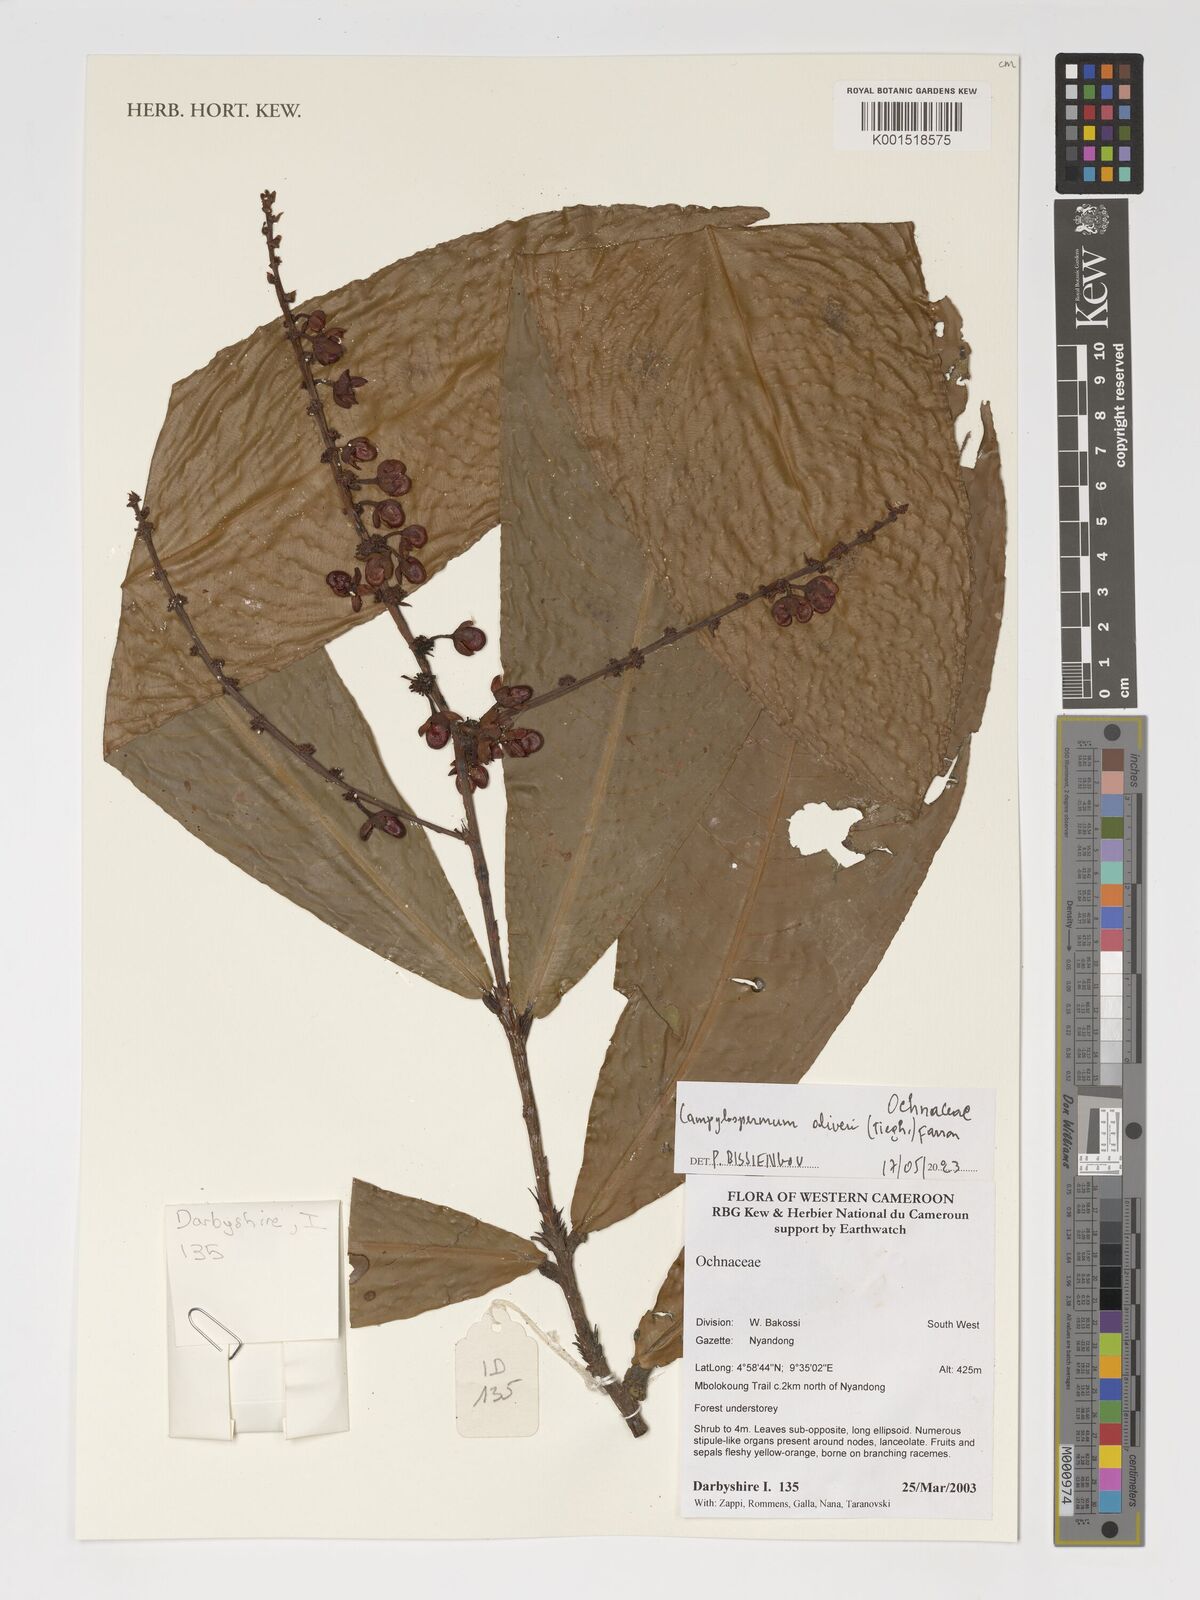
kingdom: Plantae
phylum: Tracheophyta
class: Magnoliopsida
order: Malpighiales
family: Ochnaceae
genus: Campylospermum
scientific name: Campylospermum oliveri
